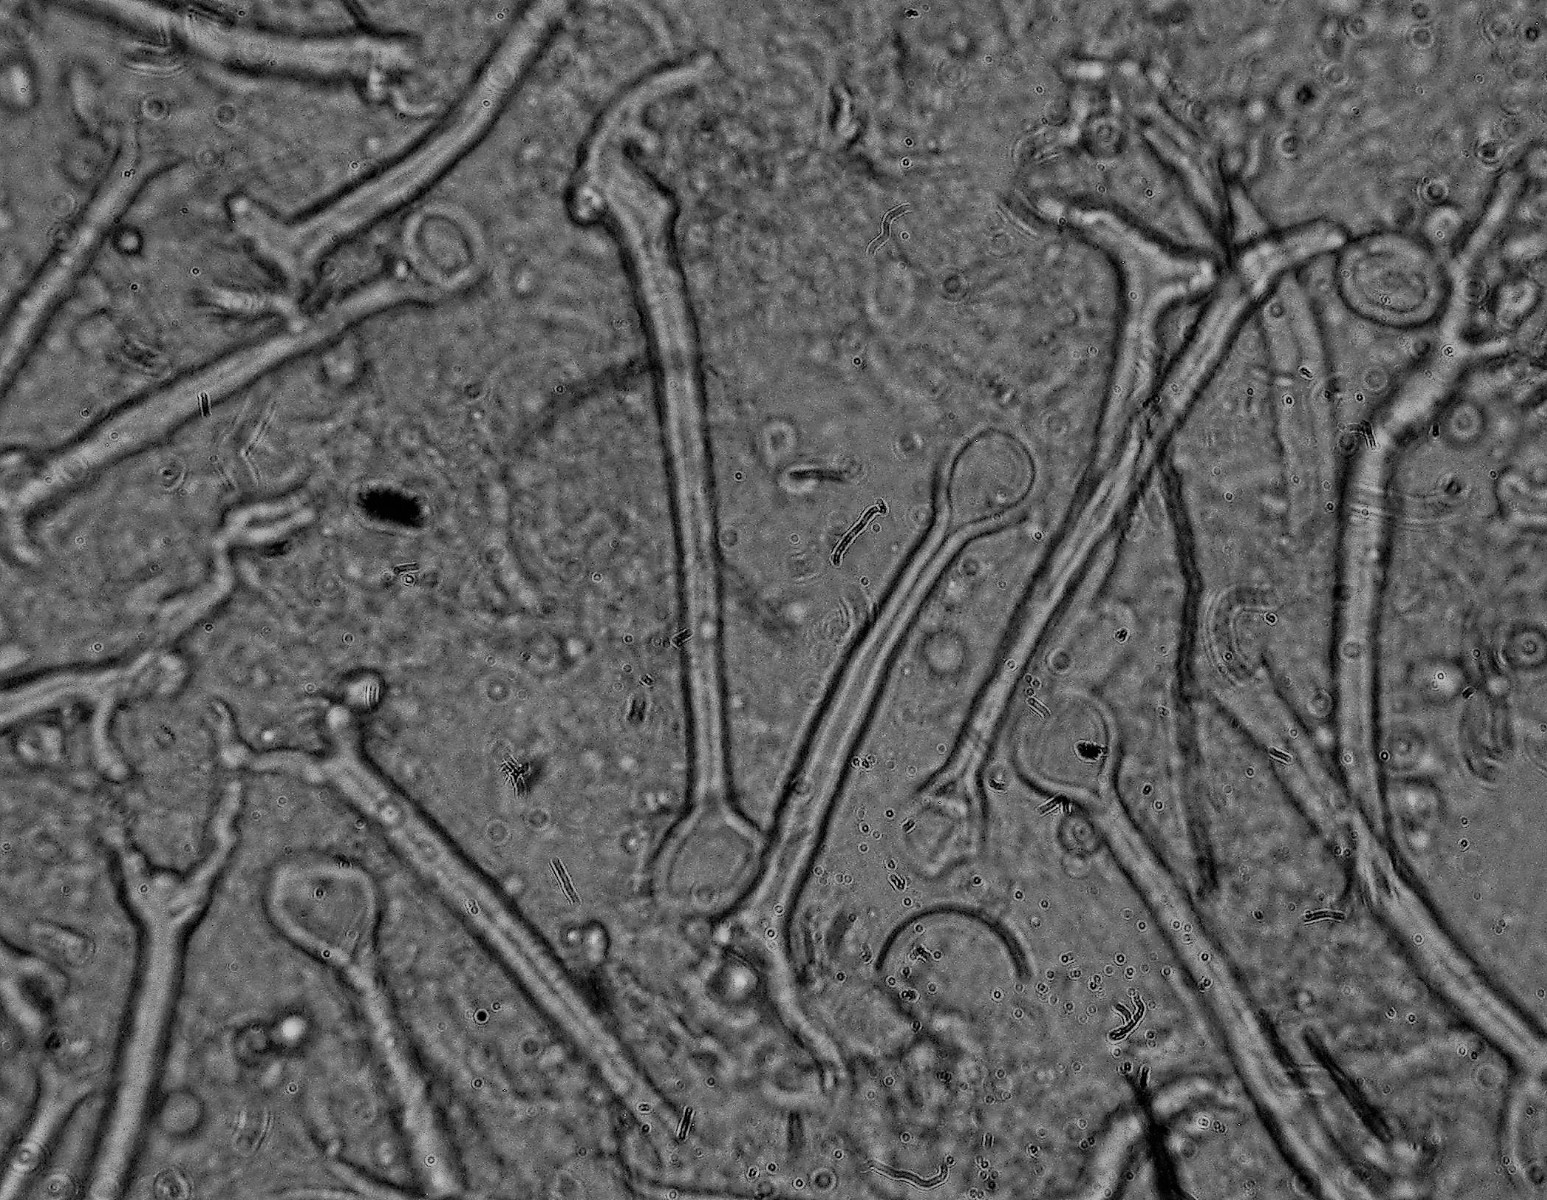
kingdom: Fungi
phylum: Basidiomycota
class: Agaricomycetes
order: Hymenochaetales
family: Hymenochaetaceae
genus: Tubulicrinis
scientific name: Tubulicrinis thermometrus
